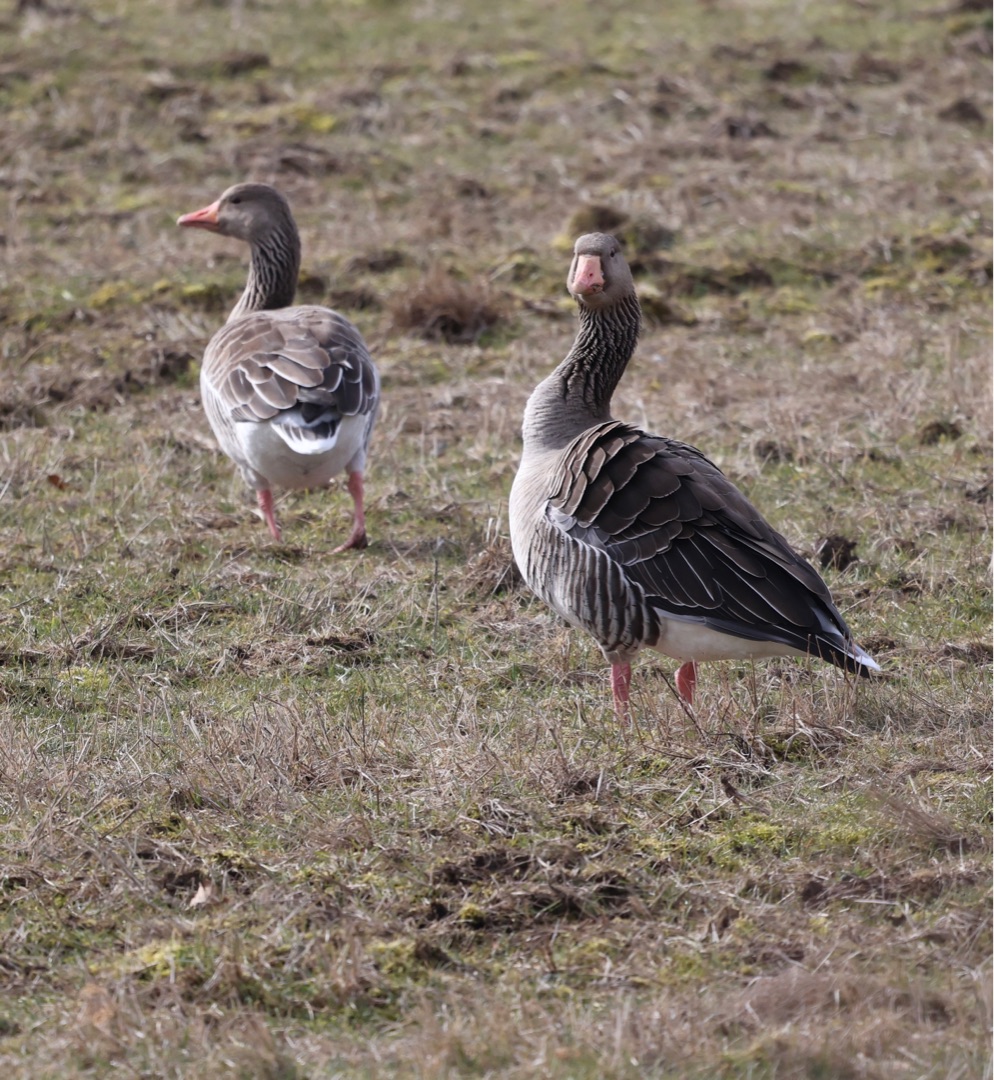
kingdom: Animalia
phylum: Chordata
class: Aves
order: Anseriformes
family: Anatidae
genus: Anser
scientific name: Anser anser
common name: Grågås
